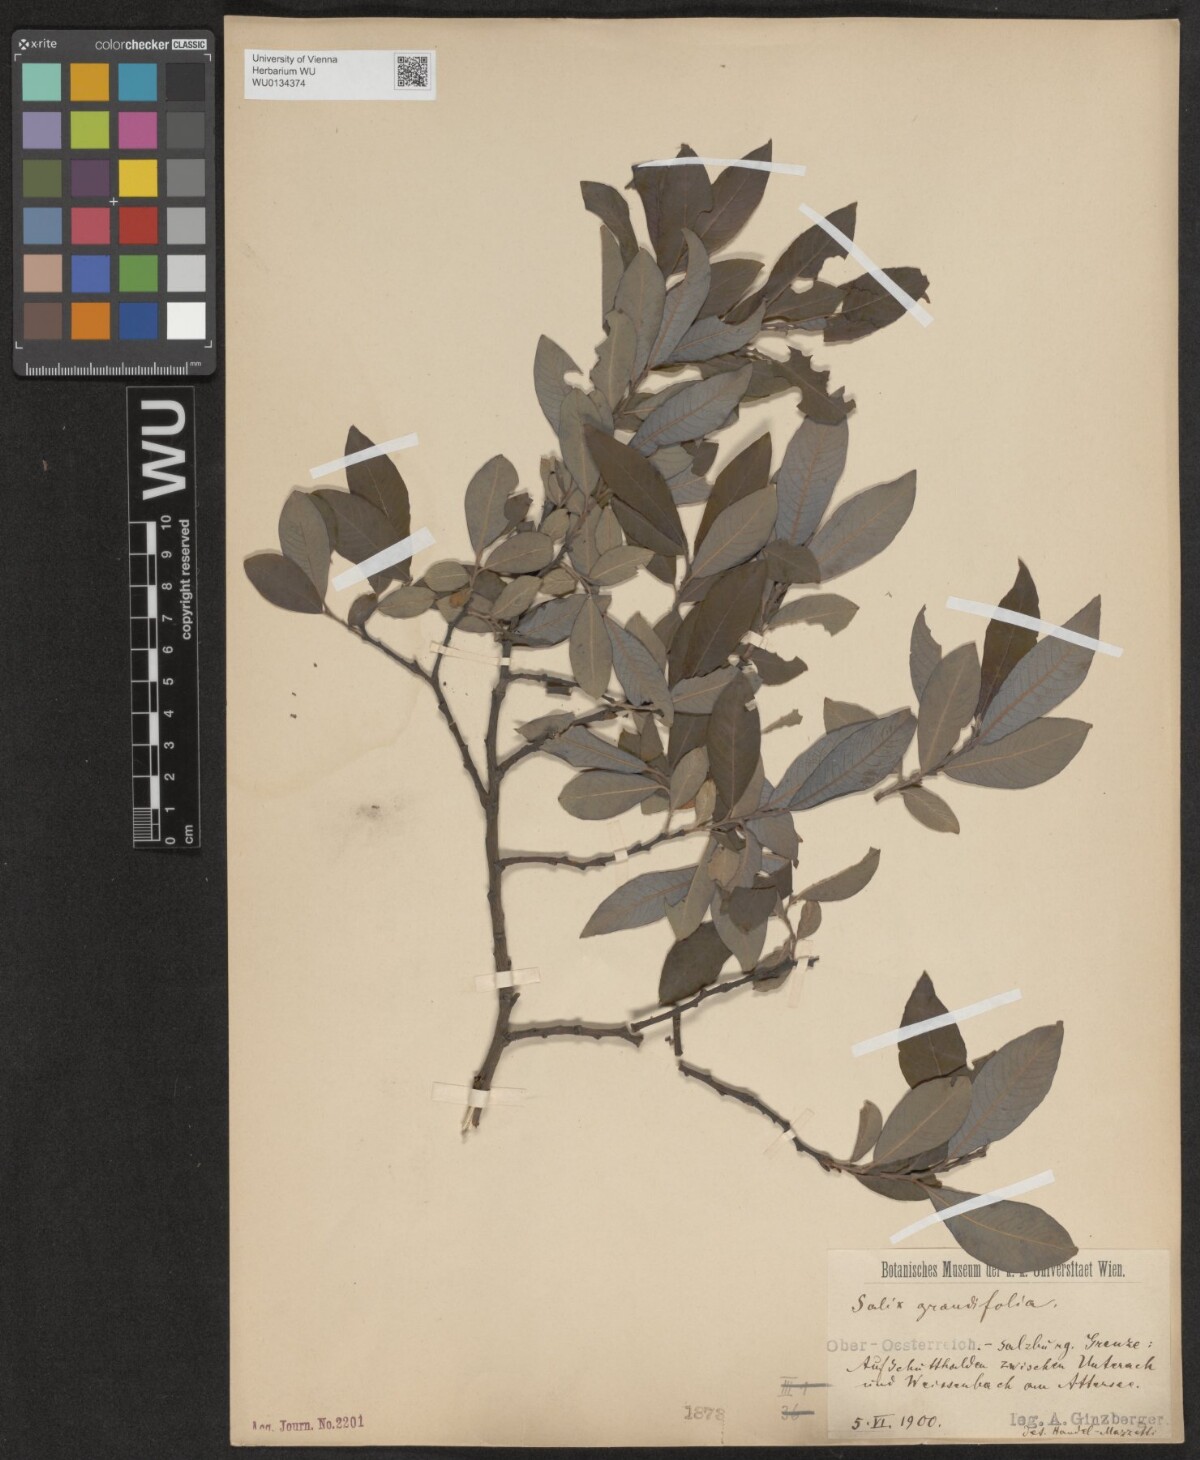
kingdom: Plantae
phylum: Tracheophyta
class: Magnoliopsida
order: Malpighiales
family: Salicaceae
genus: Salix
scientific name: Salix appendiculata
